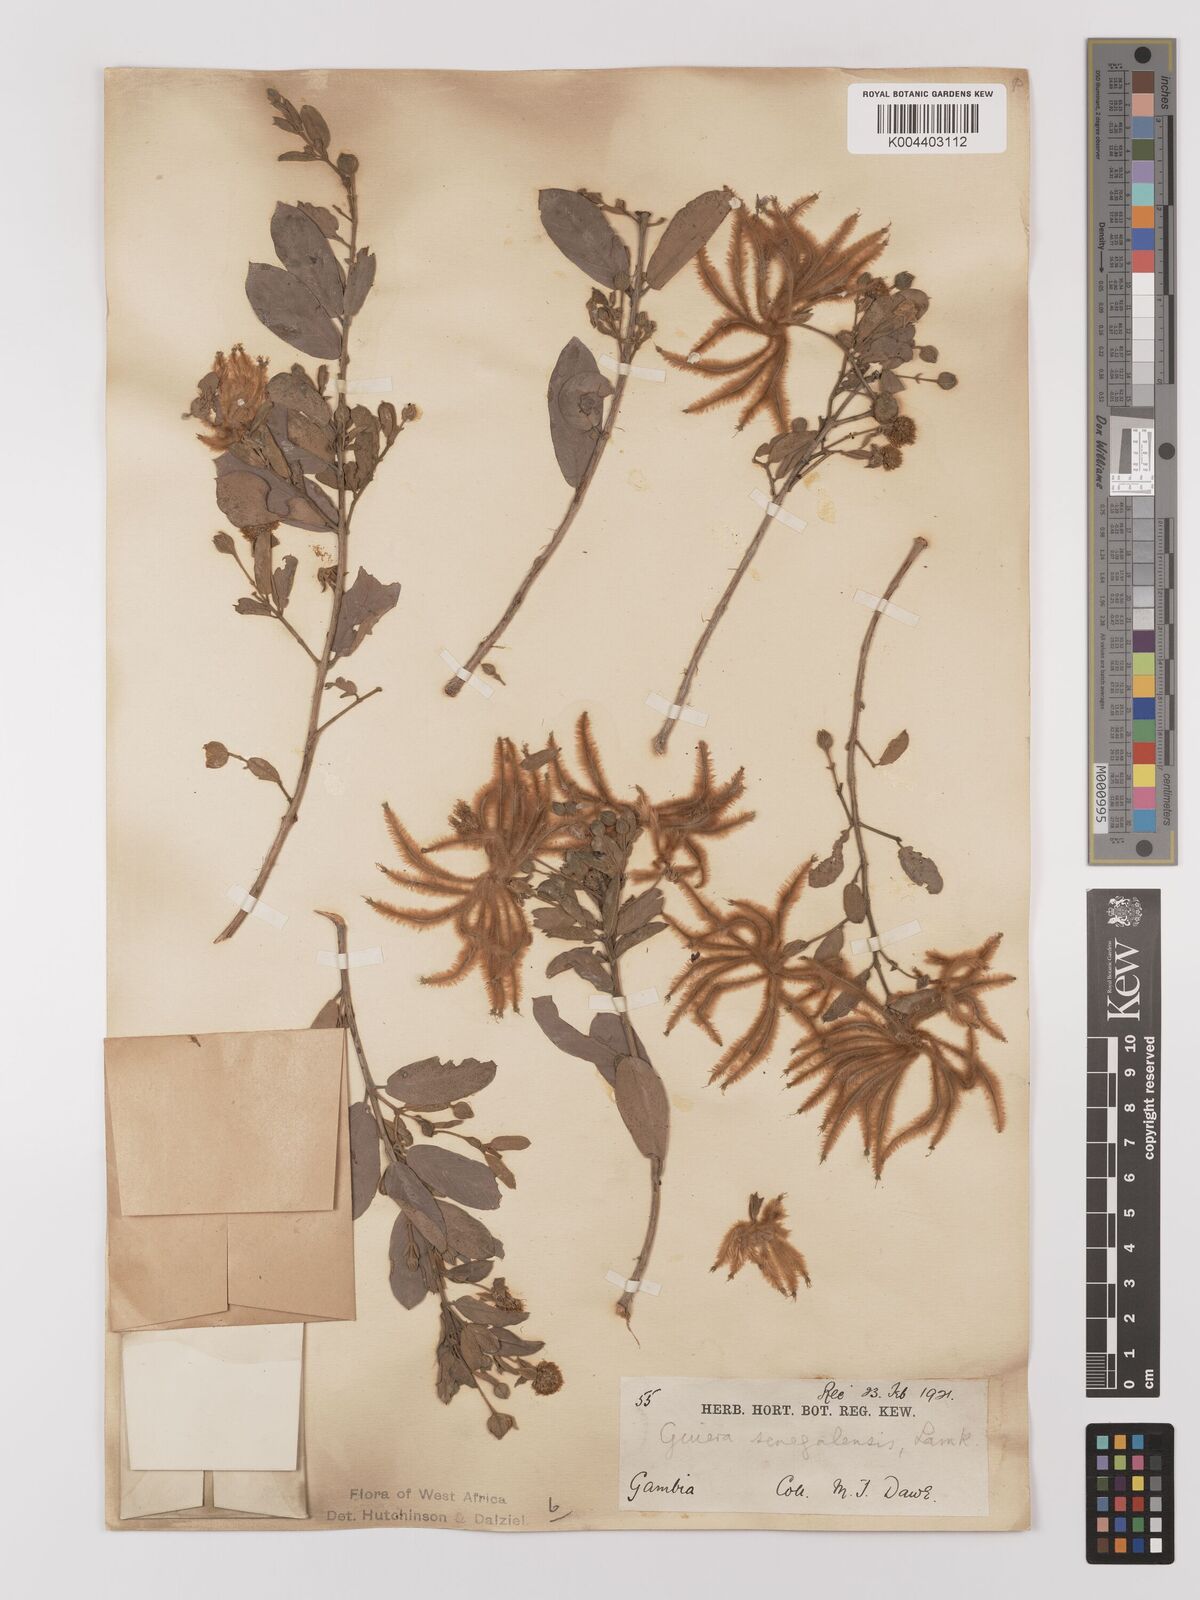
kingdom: Plantae
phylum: Tracheophyta
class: Magnoliopsida
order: Myrtales
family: Combretaceae
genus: Guiera
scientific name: Guiera senegalensis
